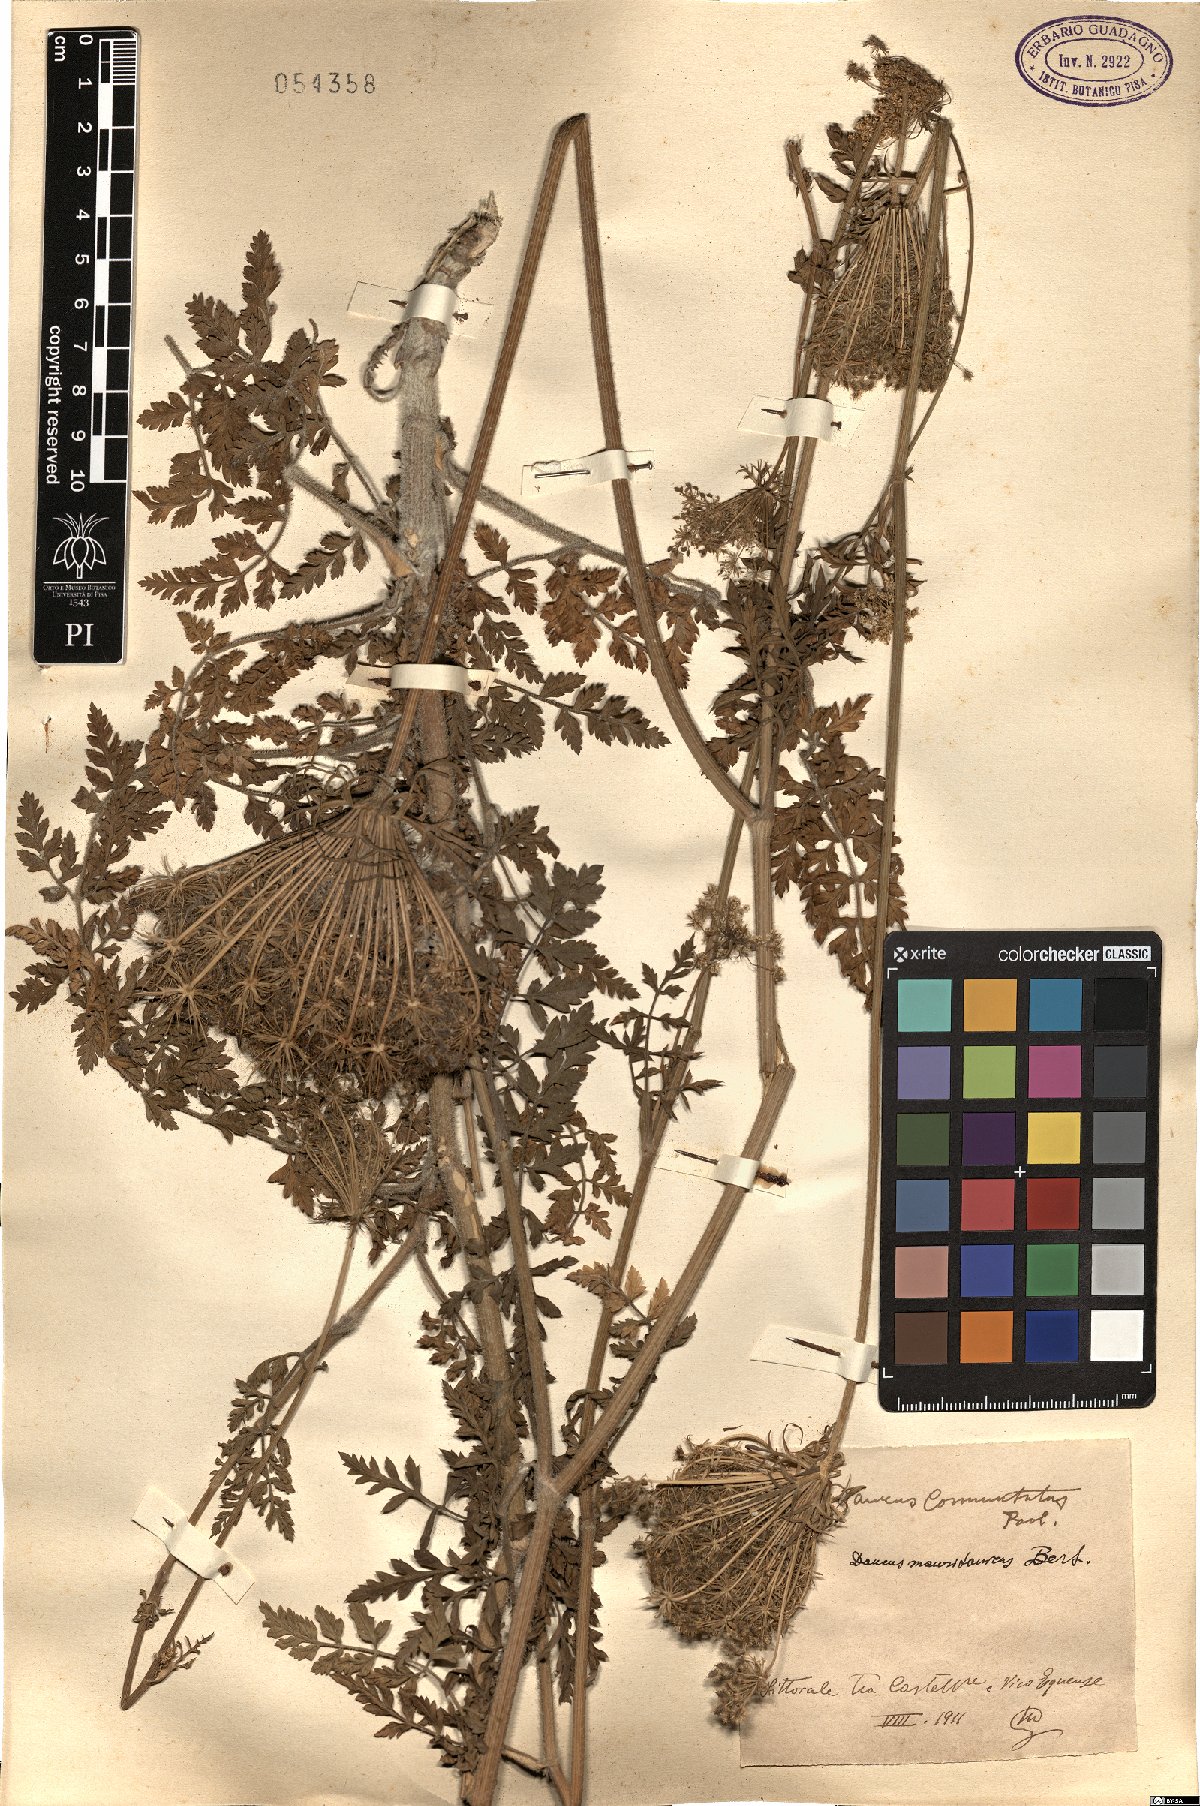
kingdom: Plantae
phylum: Tracheophyta
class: Magnoliopsida
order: Apiales
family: Apiaceae
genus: Daucus
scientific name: Daucus carota
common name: Wild carrot
